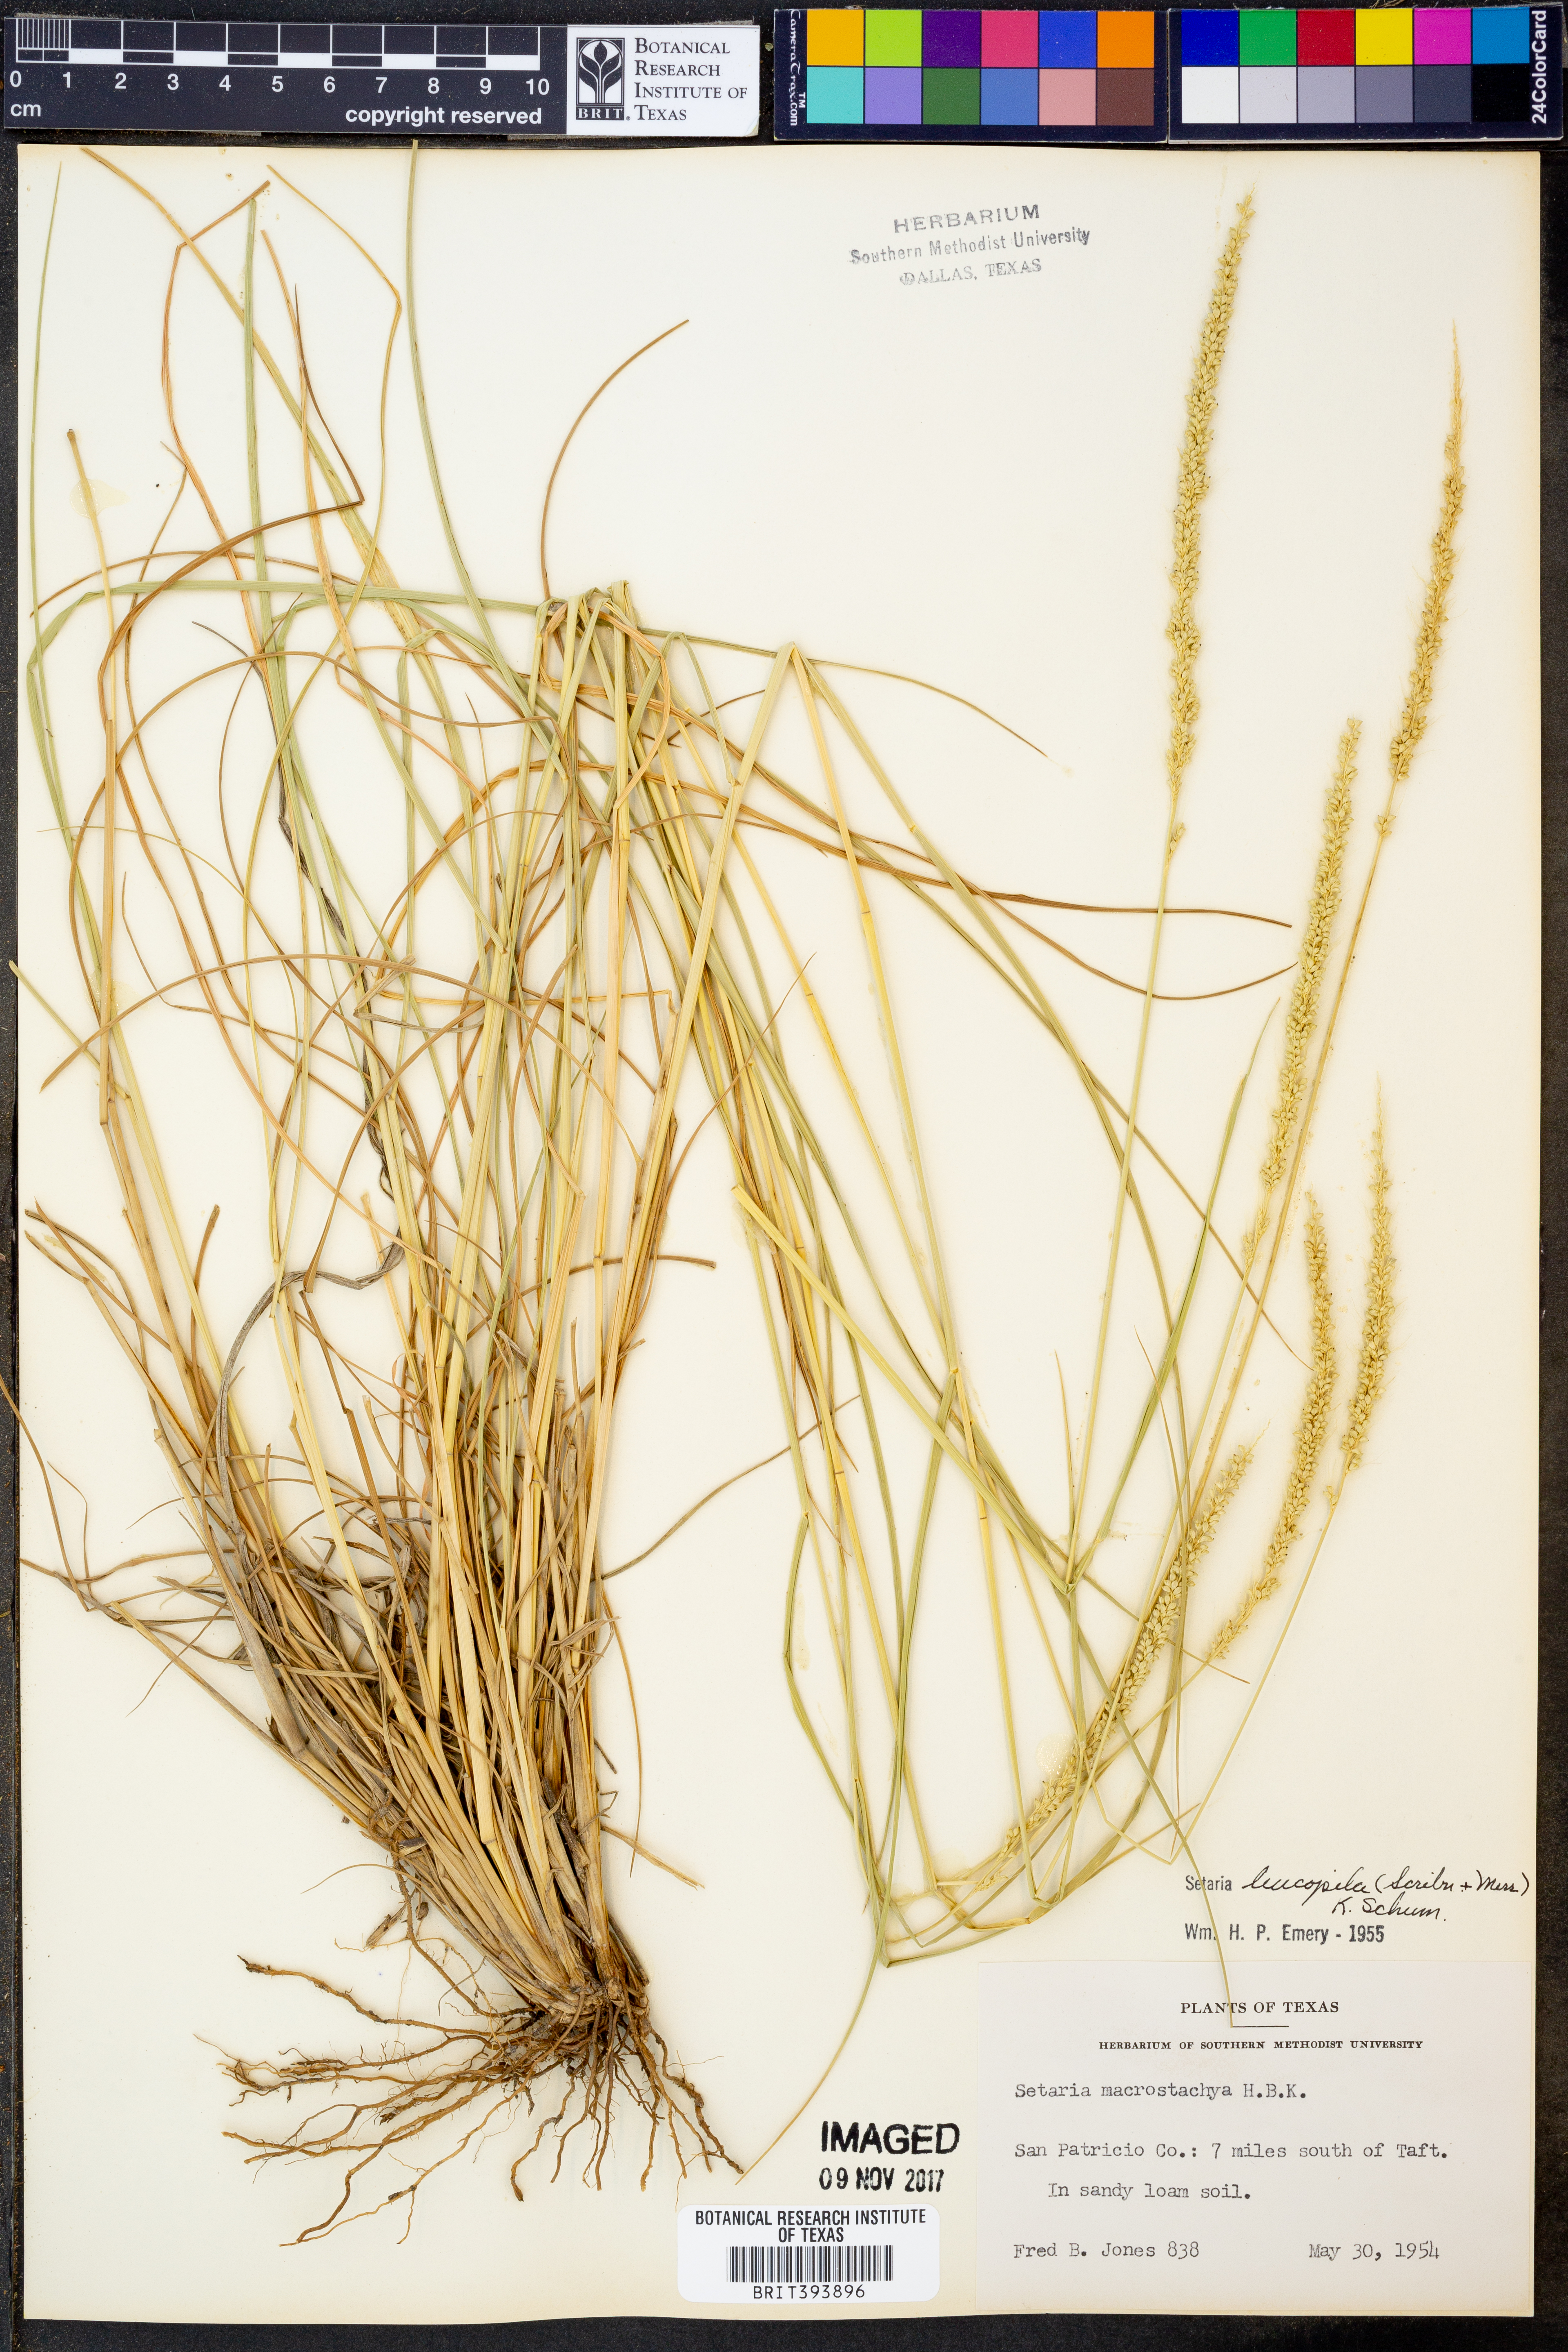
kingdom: Plantae
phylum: Tracheophyta
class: Liliopsida
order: Poales
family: Poaceae
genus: Setaria
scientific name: Setaria leucopila
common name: Plains bristle grass
